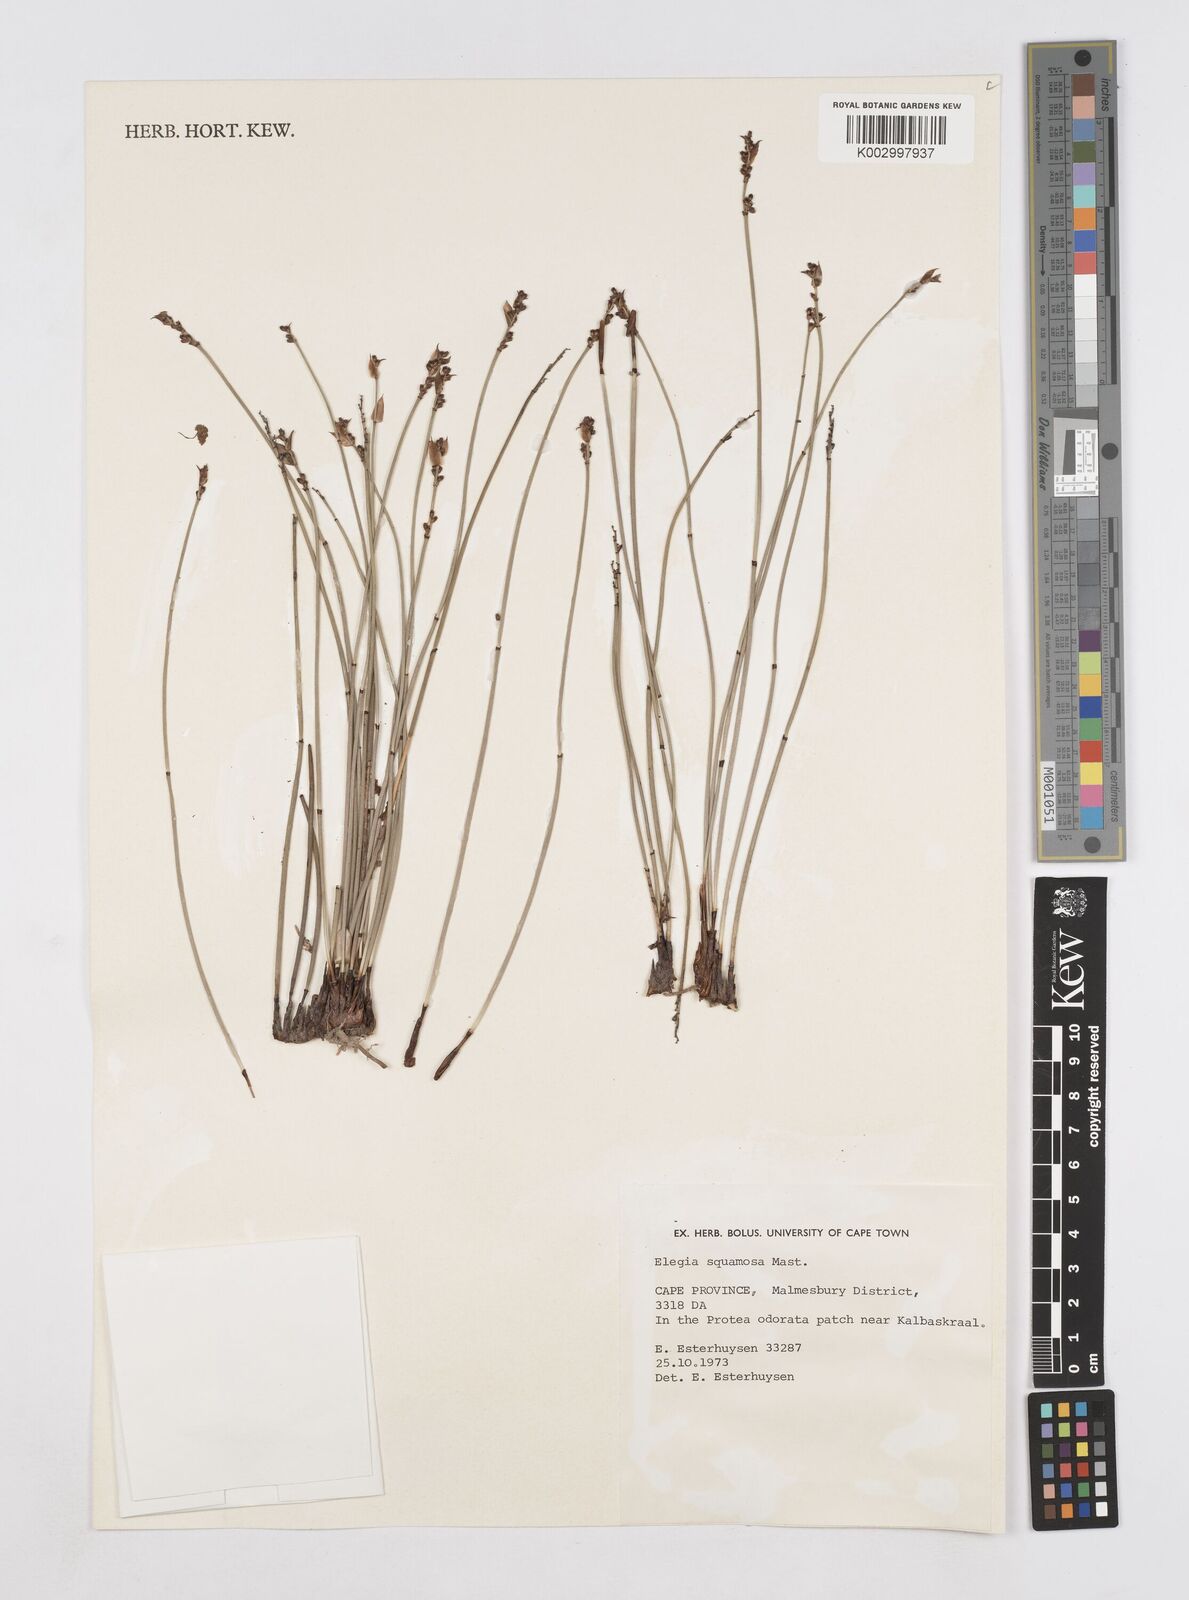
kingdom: Plantae
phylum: Tracheophyta
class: Liliopsida
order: Poales
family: Restionaceae
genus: Elegia
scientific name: Elegia squamosa
